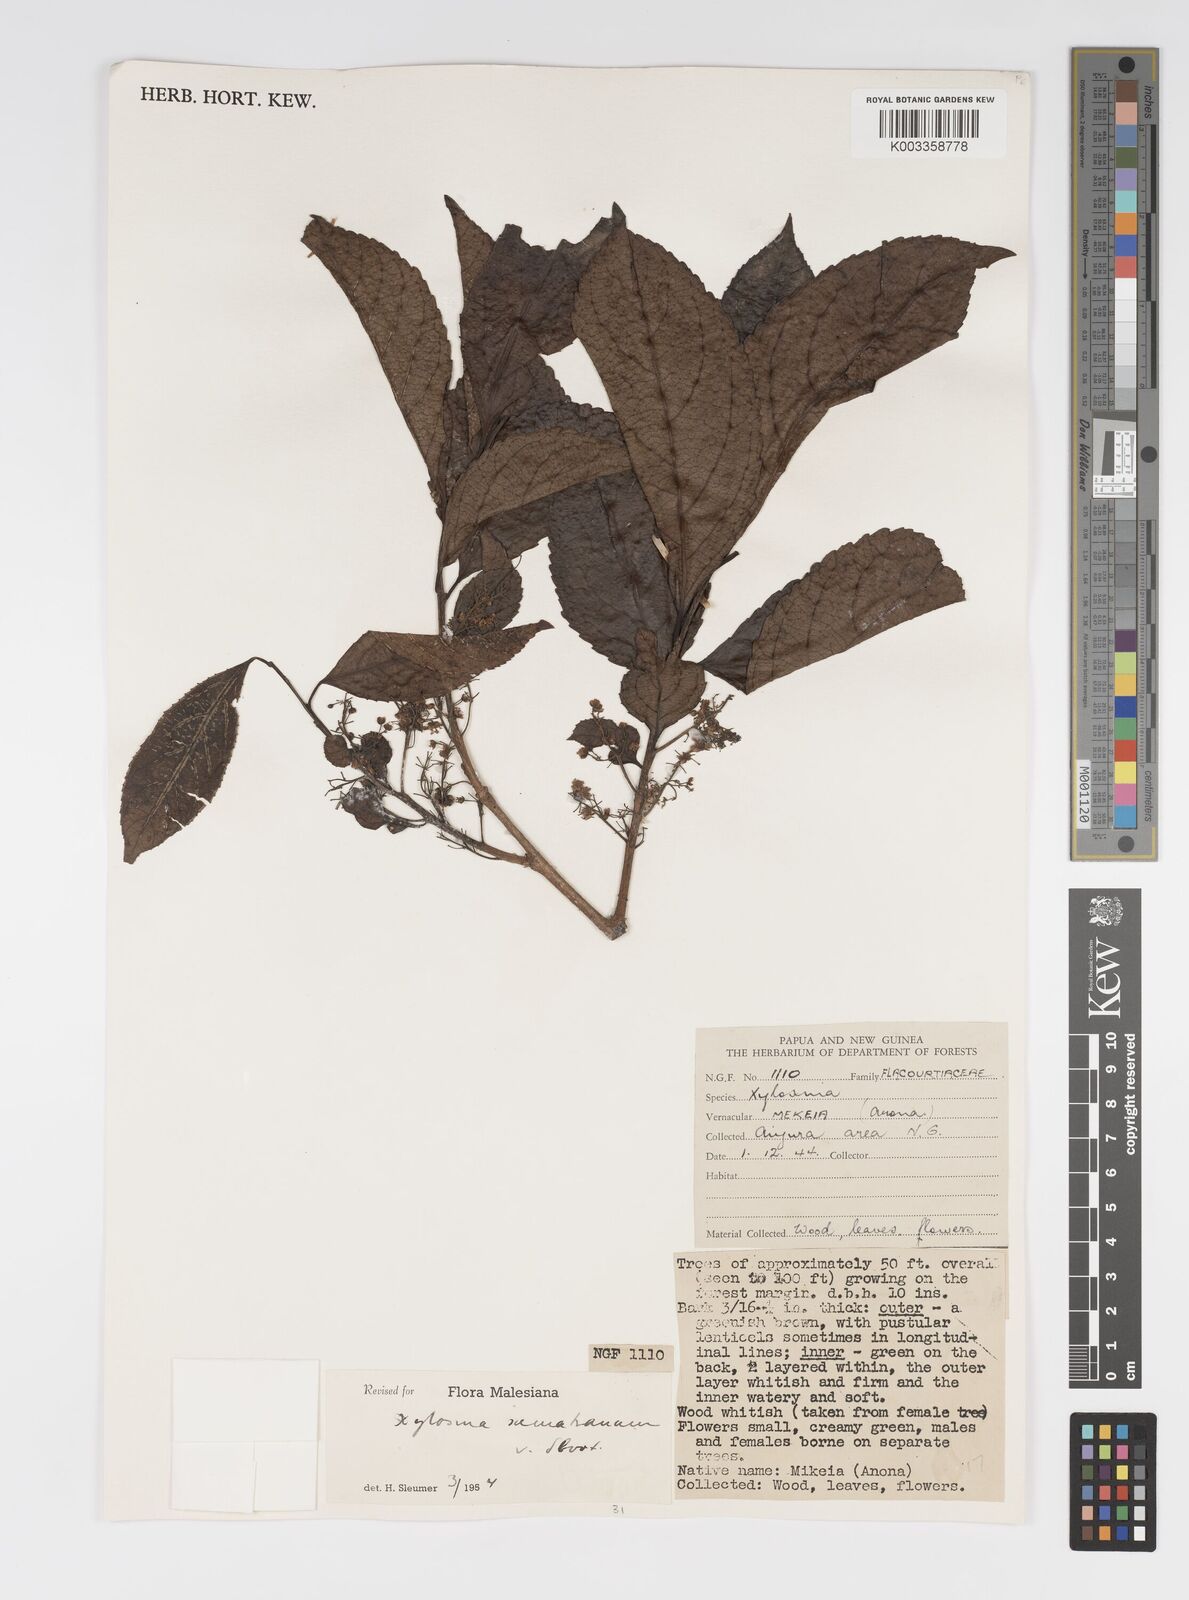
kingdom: Plantae
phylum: Tracheophyta
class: Magnoliopsida
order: Malpighiales
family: Salicaceae
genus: Xylosma
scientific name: Xylosma sumatrana
